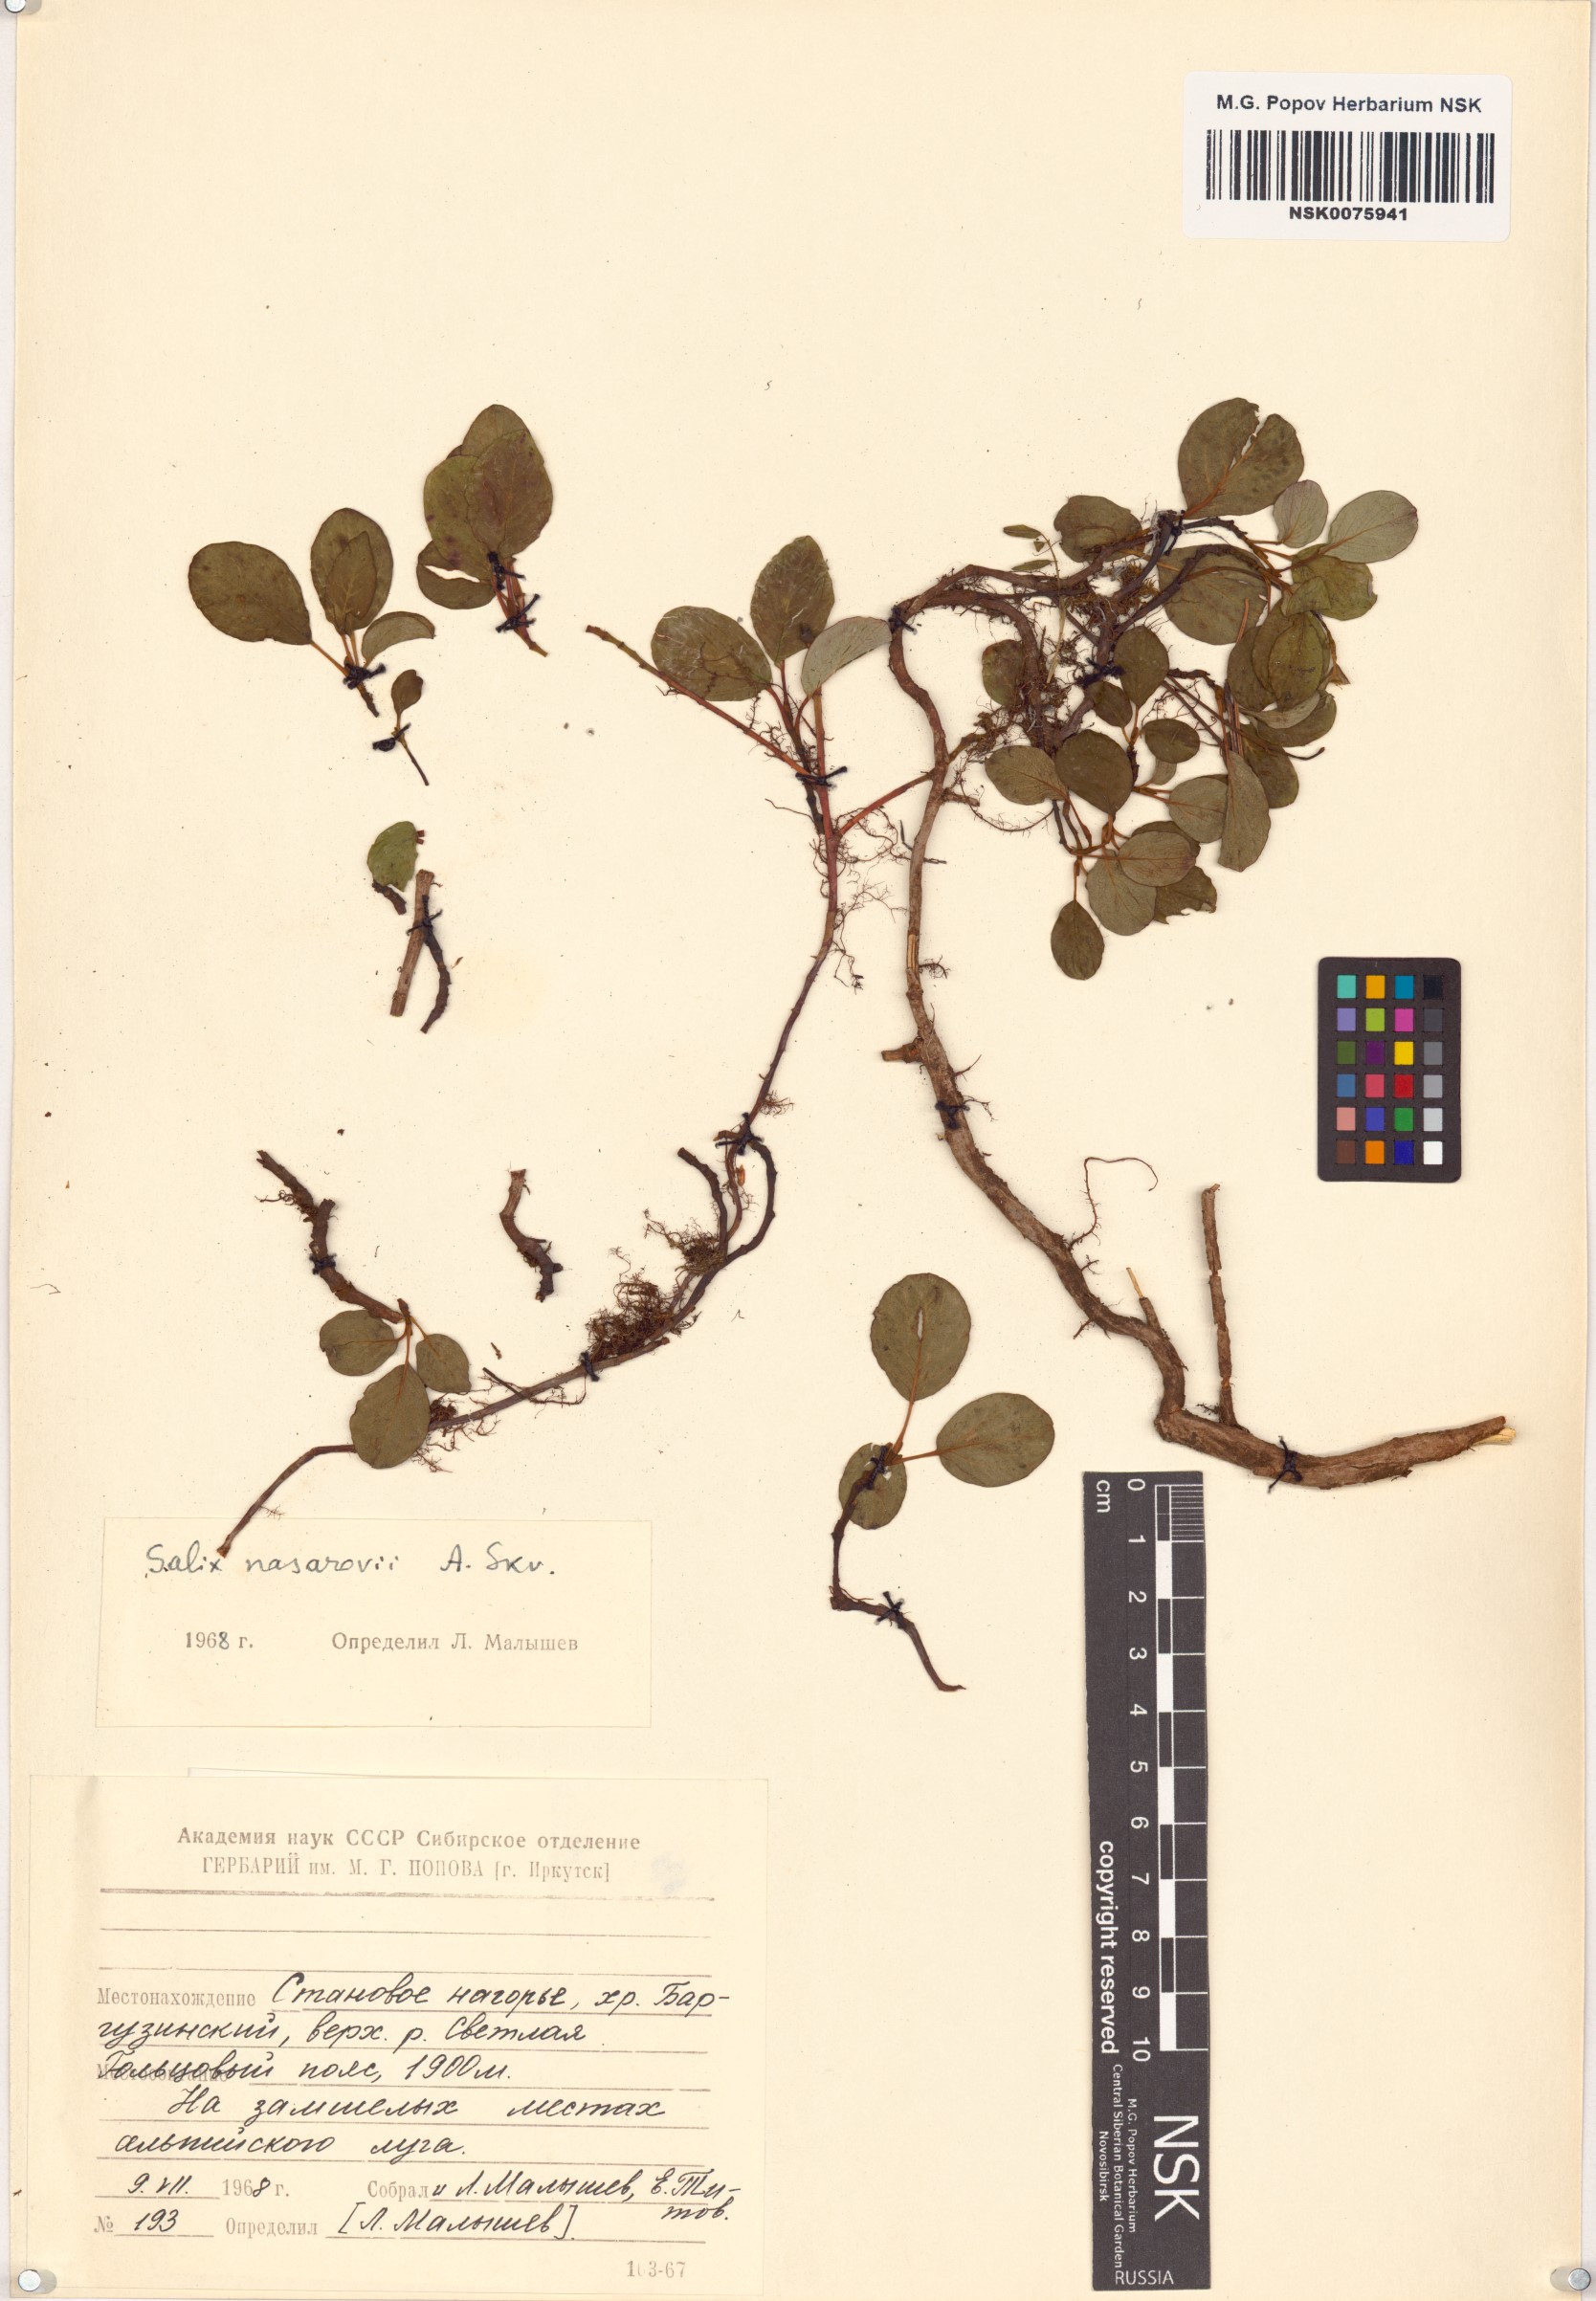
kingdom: Plantae
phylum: Tracheophyta
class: Magnoliopsida
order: Malpighiales
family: Salicaceae
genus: Salix
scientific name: Salix nasarovii
